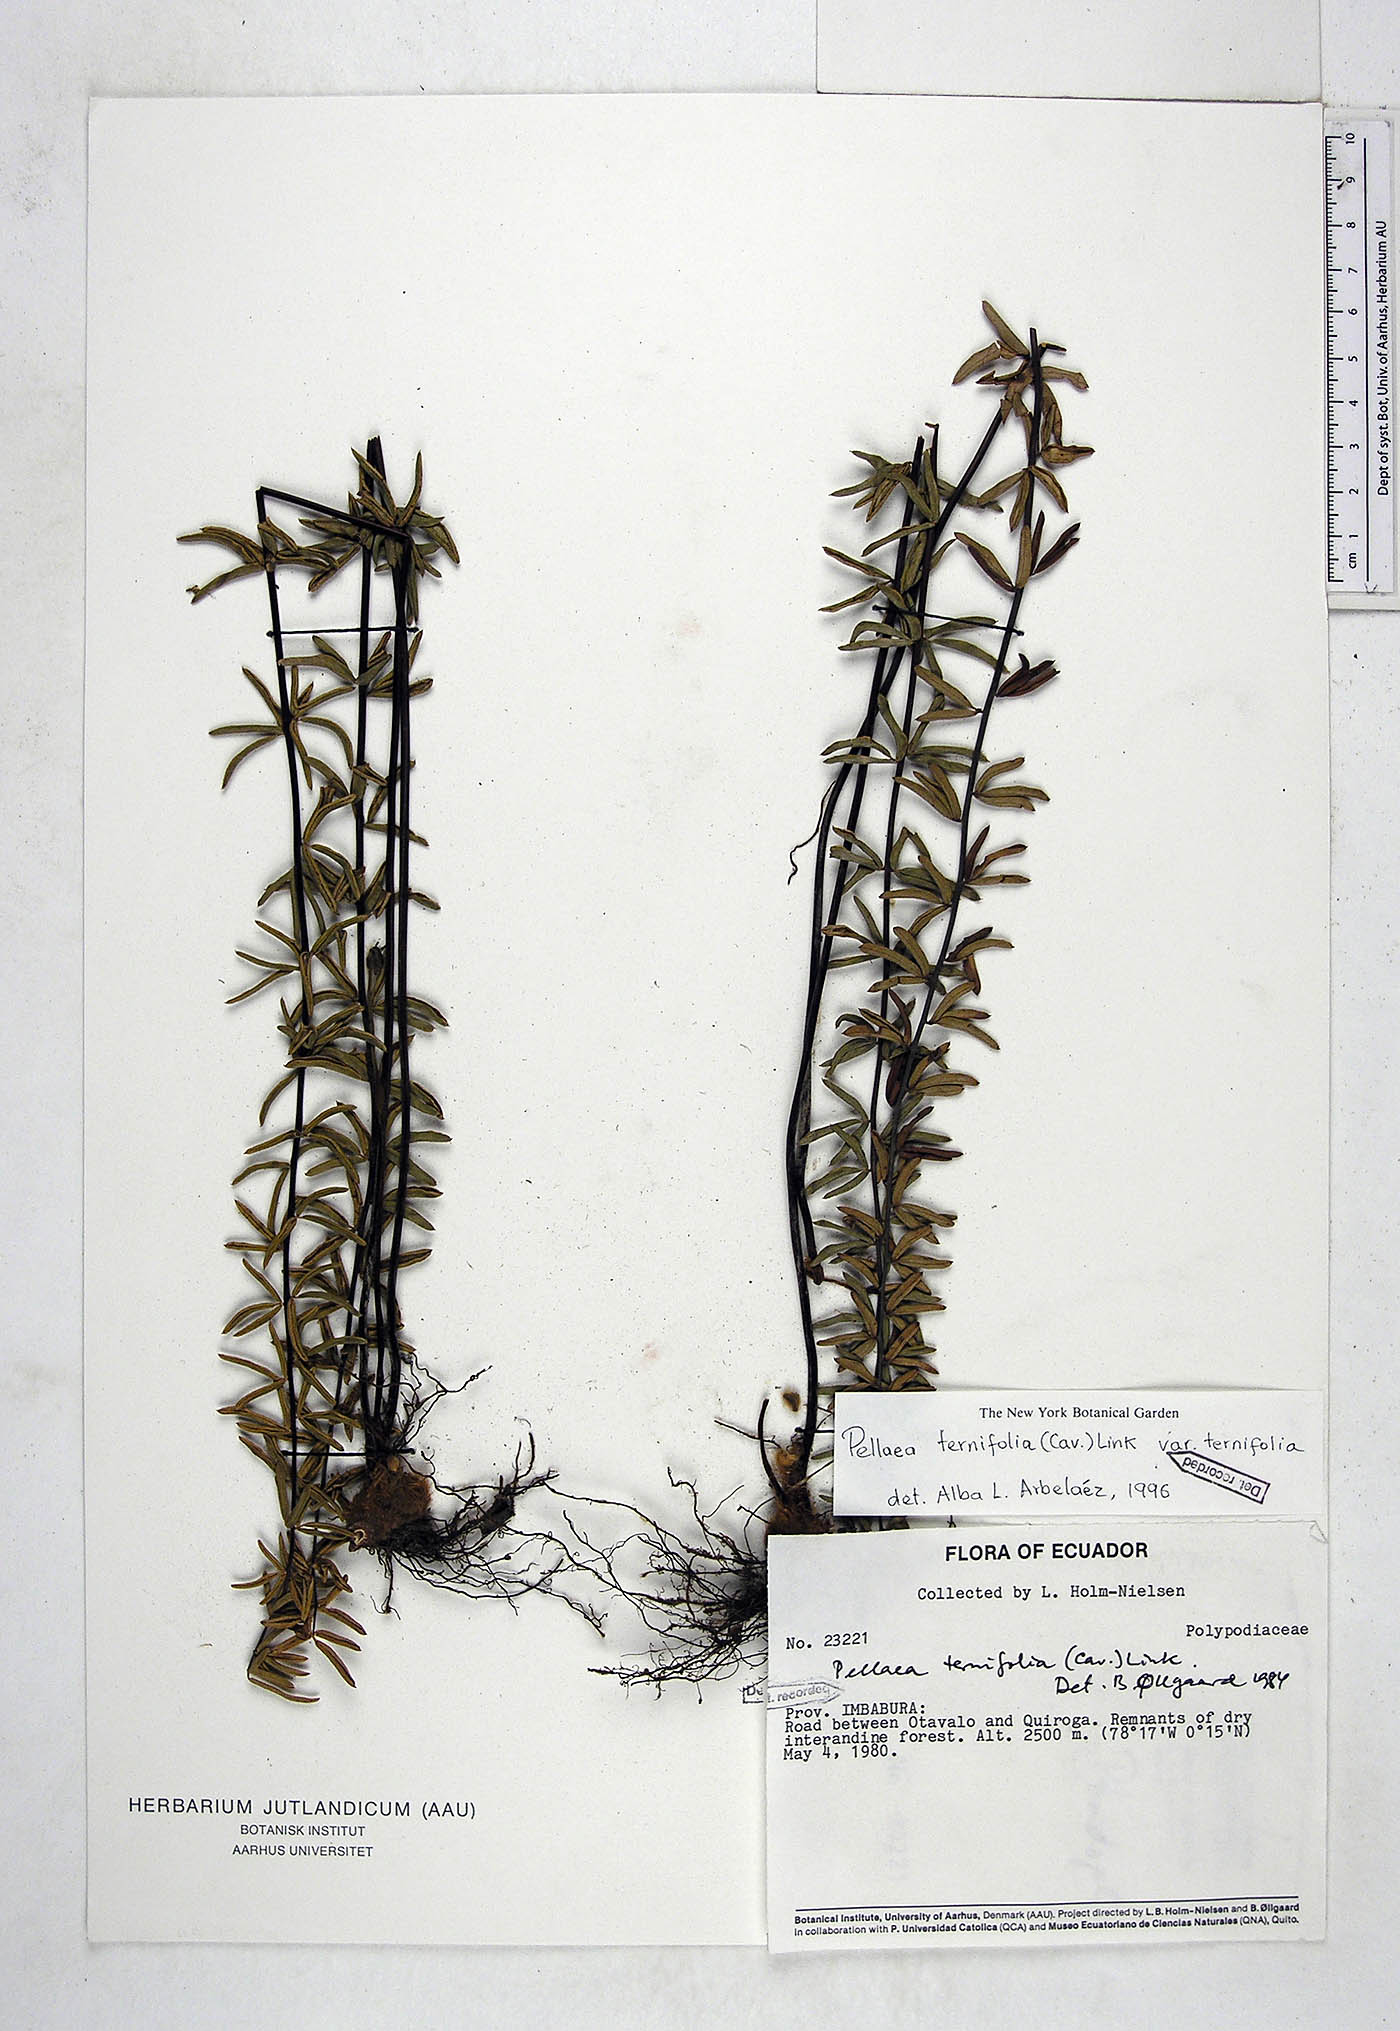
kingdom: Plantae
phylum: Tracheophyta
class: Polypodiopsida
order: Polypodiales
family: Pteridaceae
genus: Pellaea
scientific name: Pellaea ternifolia
